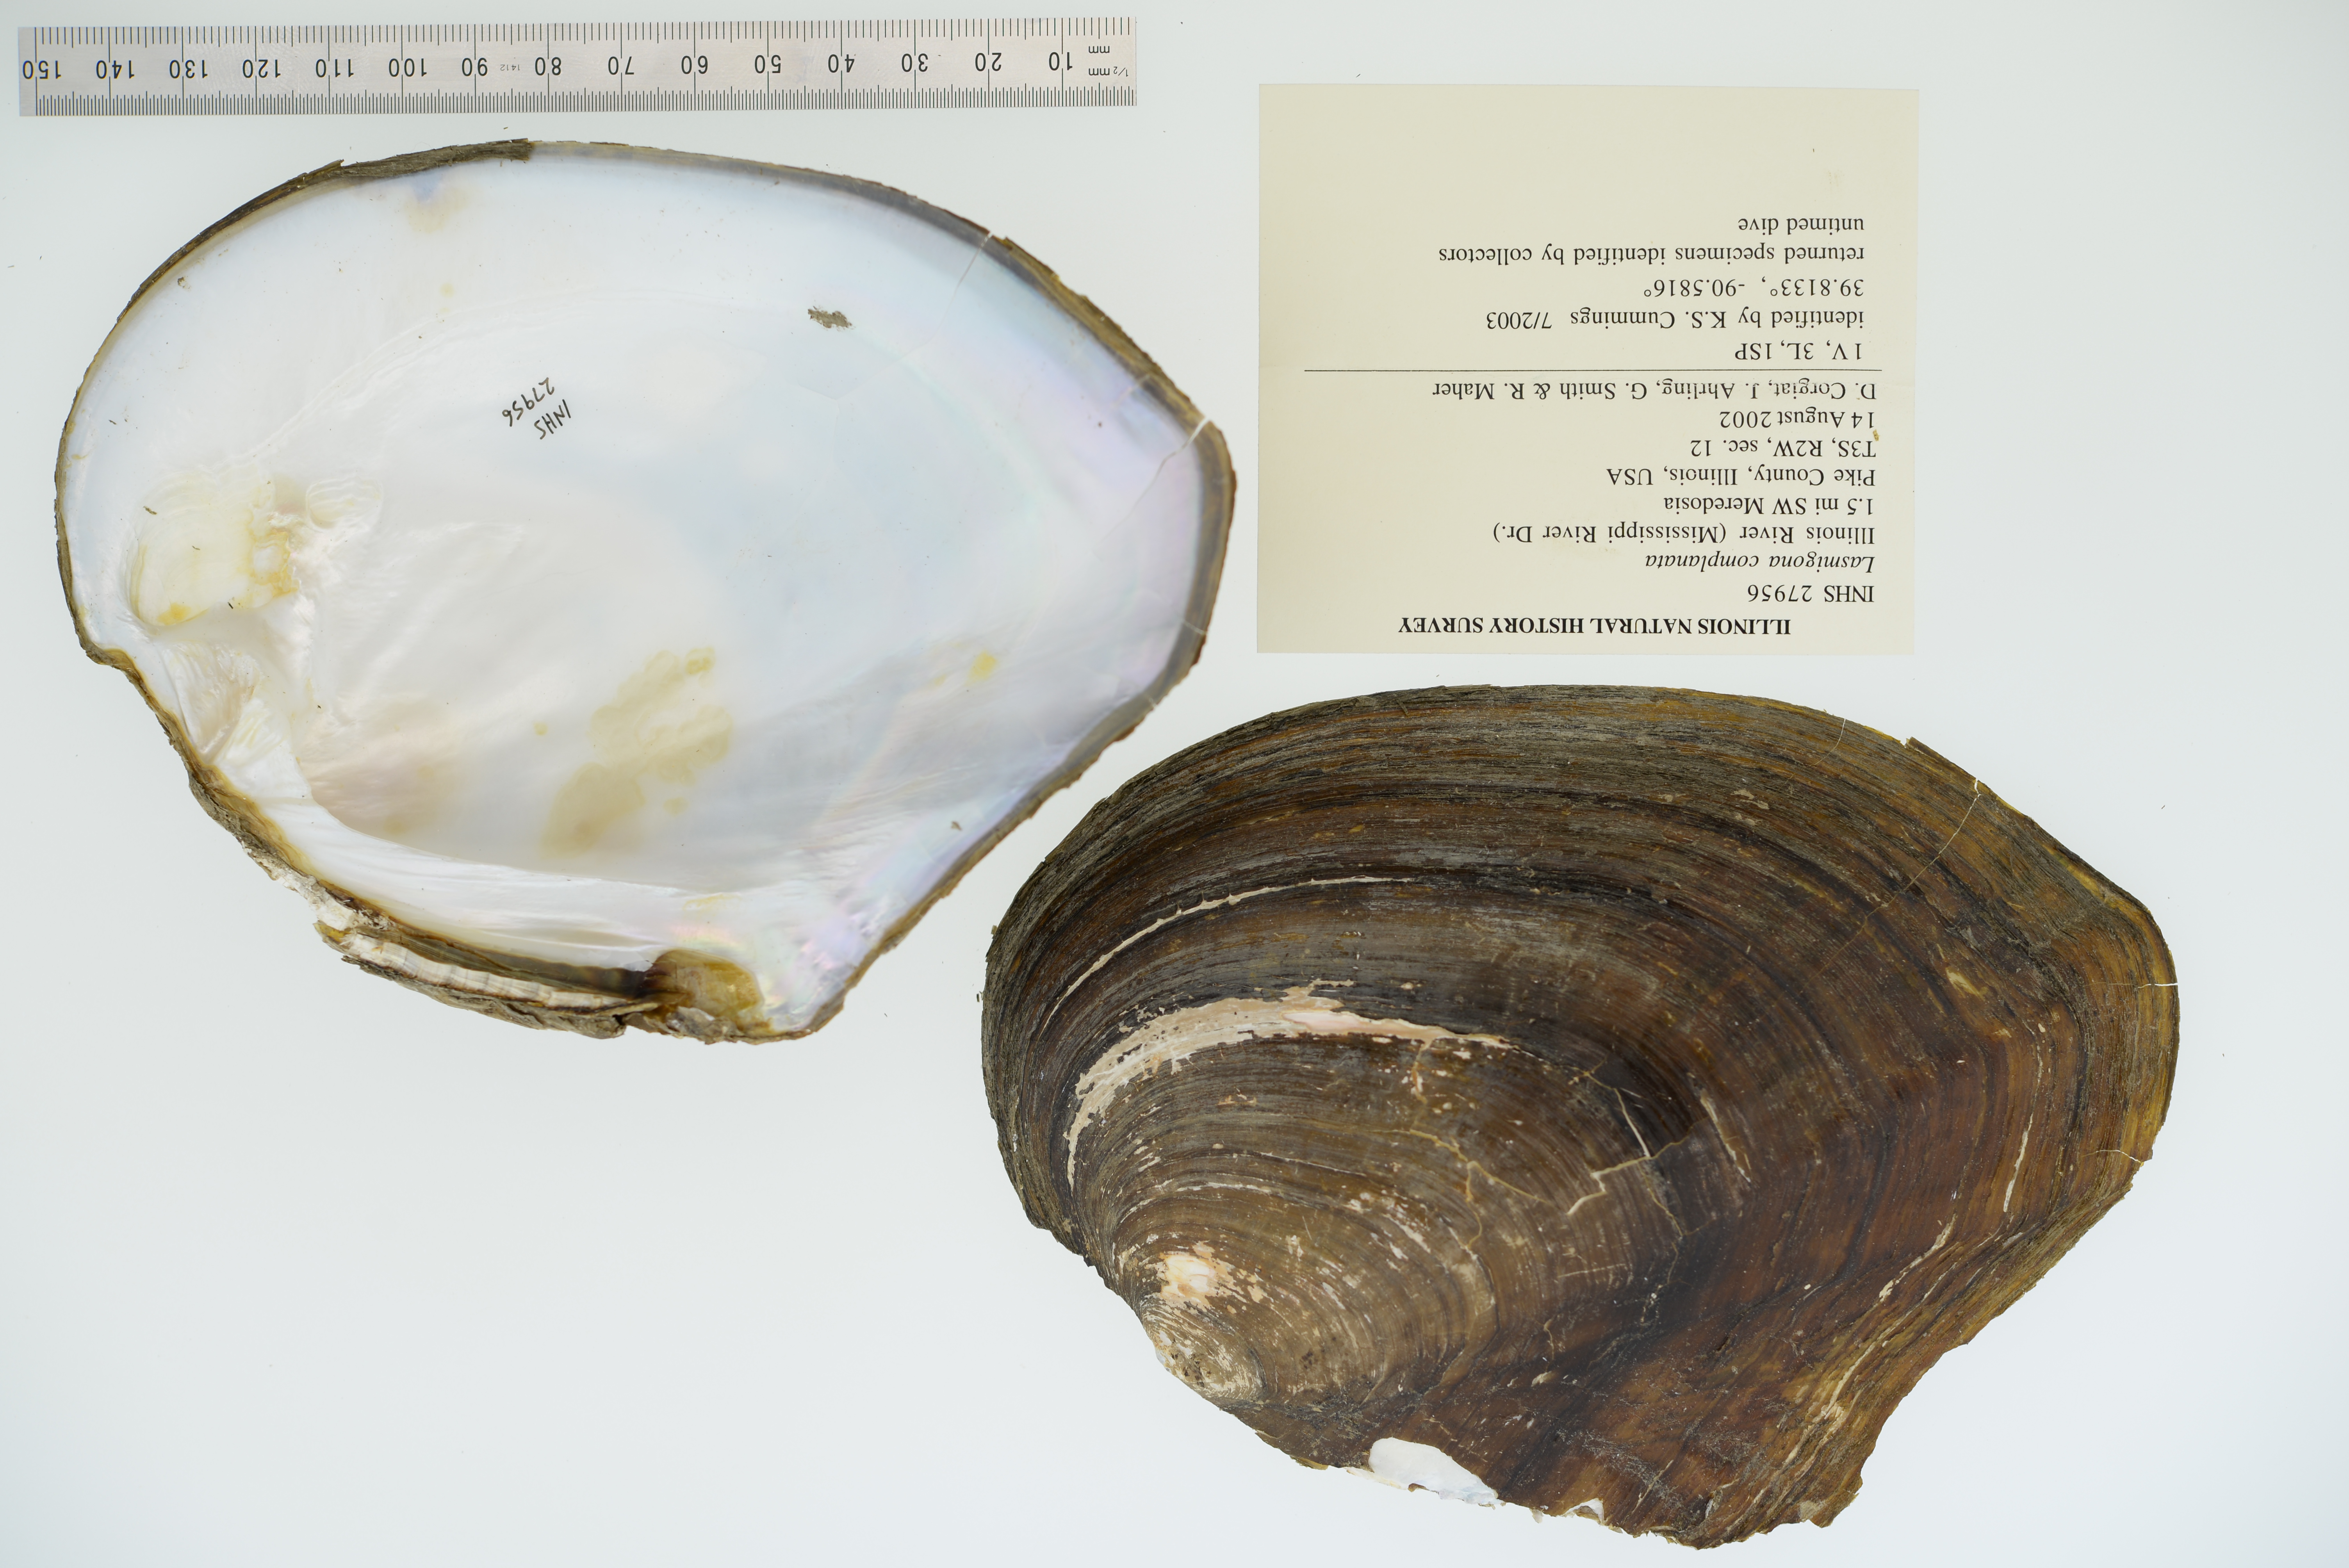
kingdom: Animalia
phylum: Mollusca
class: Bivalvia
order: Unionida
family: Unionidae
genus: Lasmigona
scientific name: Lasmigona complanata
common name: White heelsplitter
